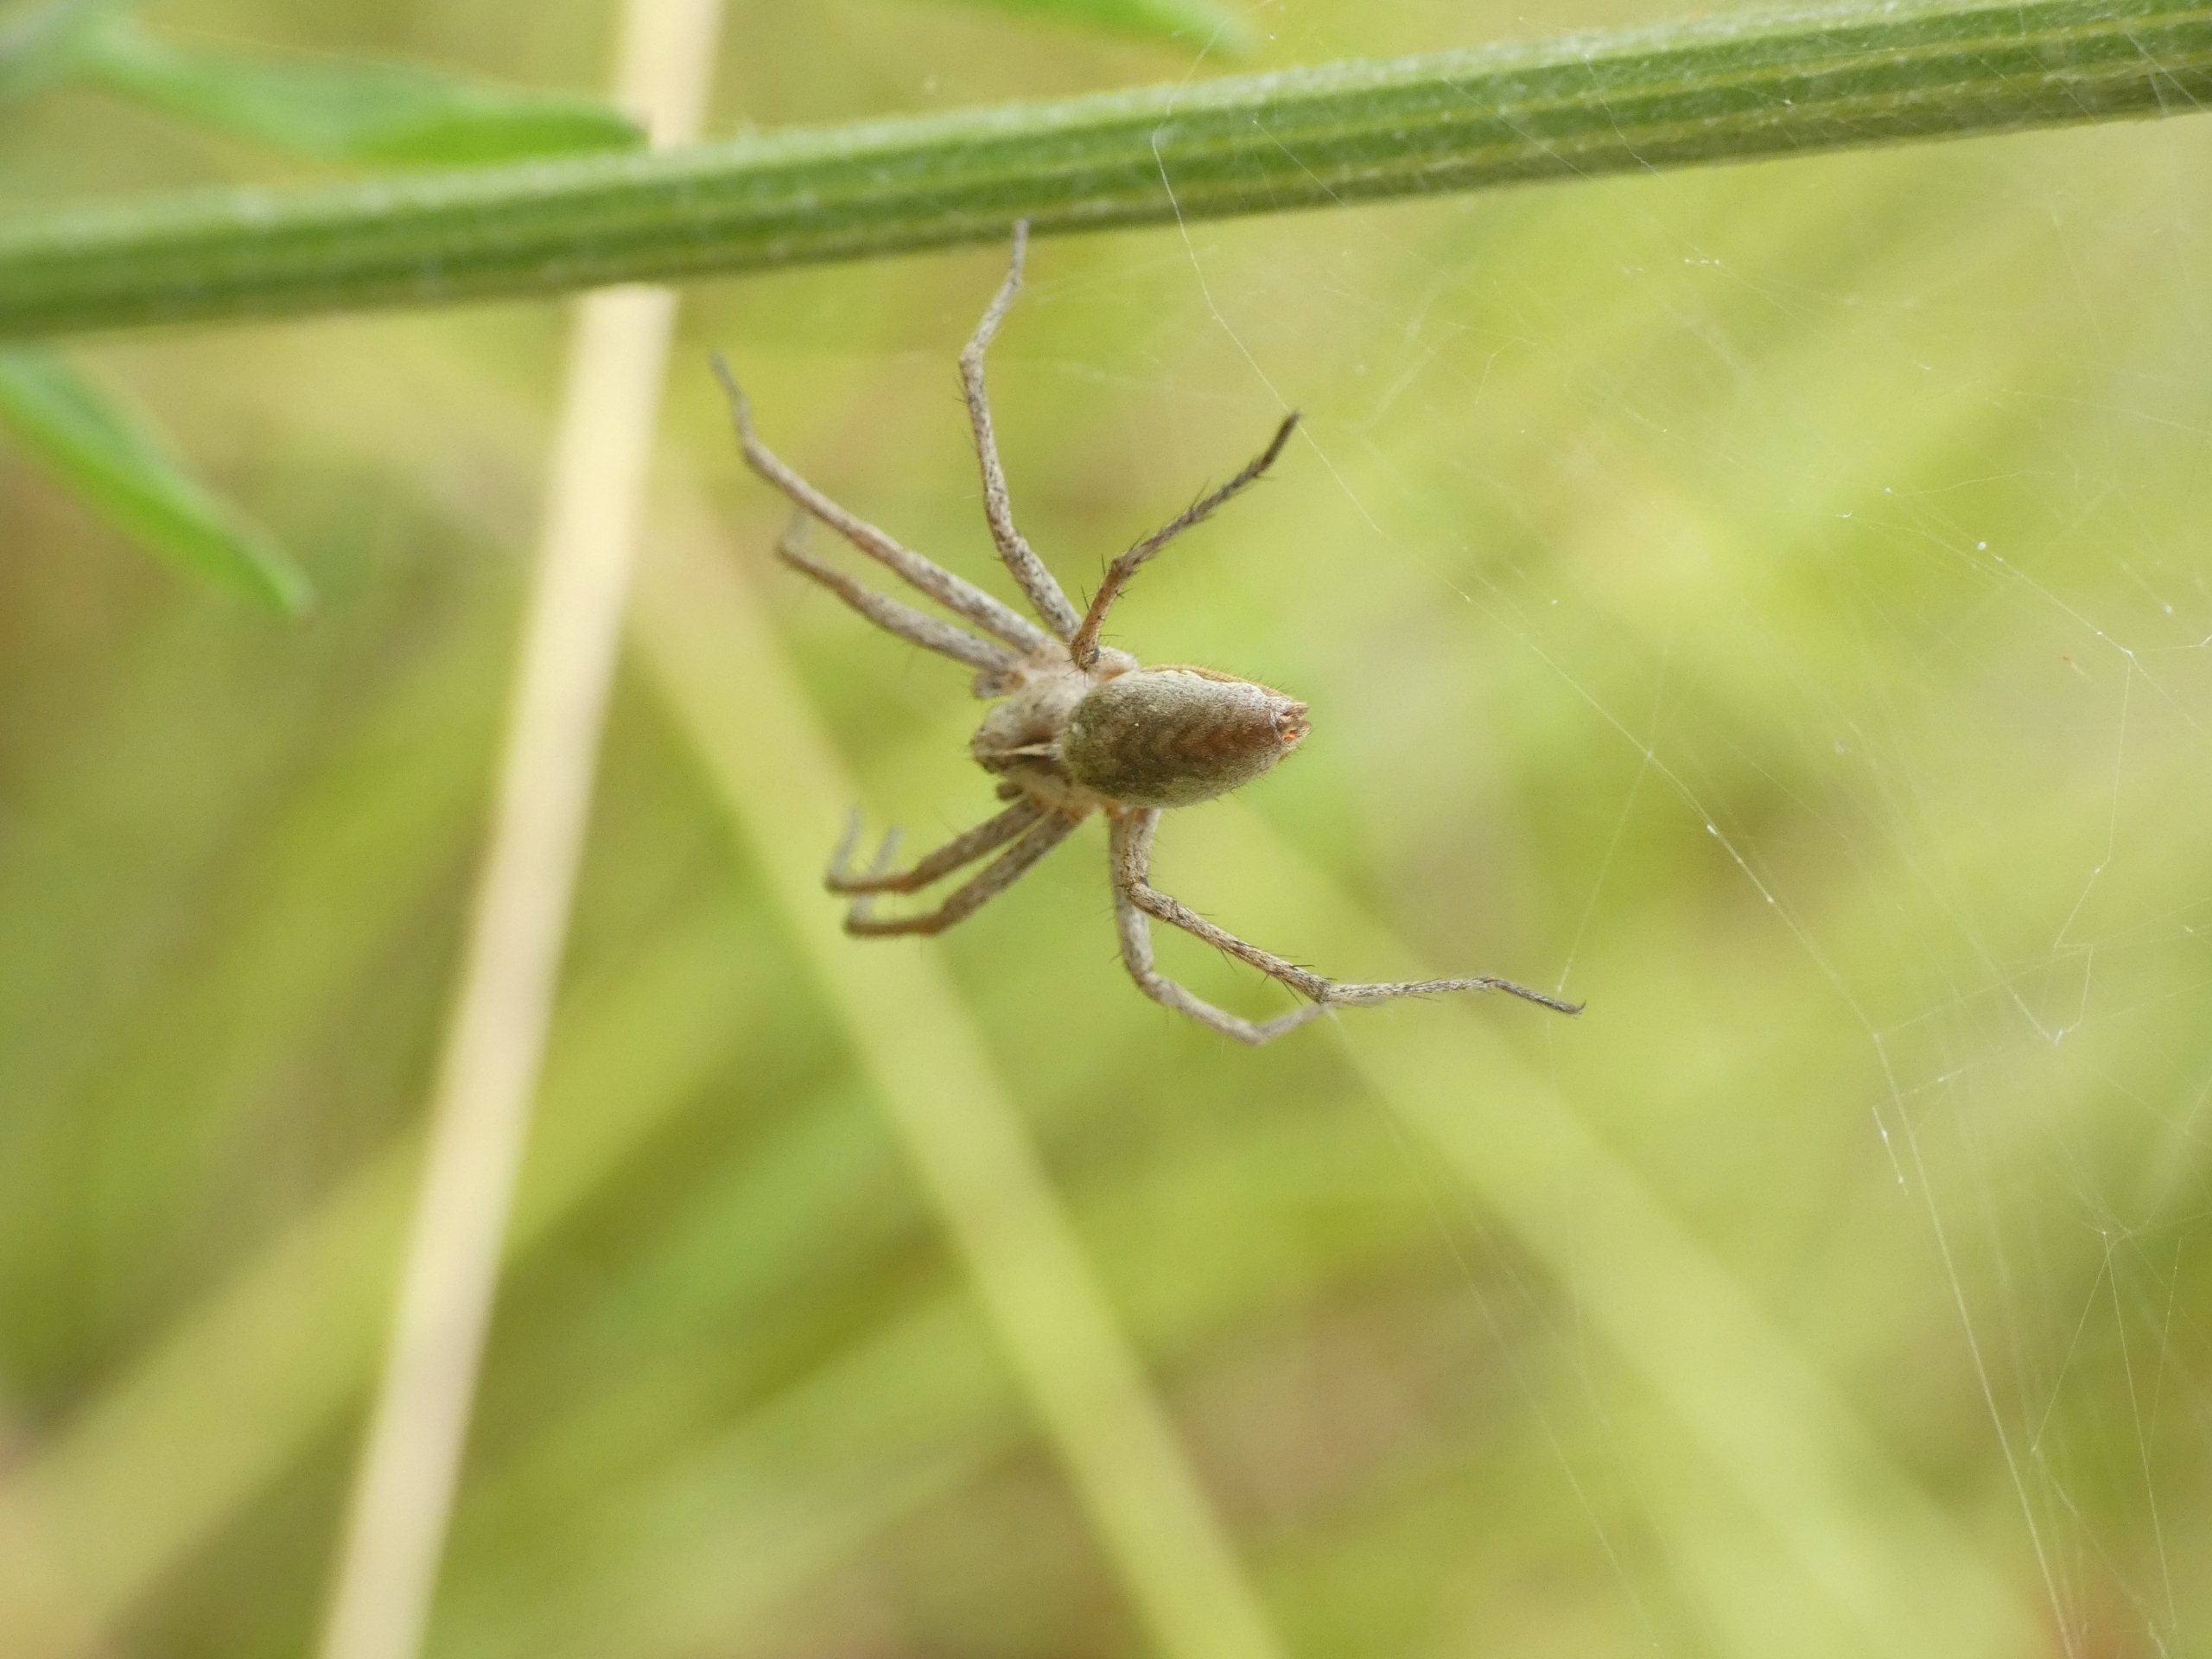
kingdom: Animalia
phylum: Arthropoda
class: Arachnida
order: Araneae
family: Pisauridae
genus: Pisaura
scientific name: Pisaura mirabilis
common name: Almindelig rovedderkop
